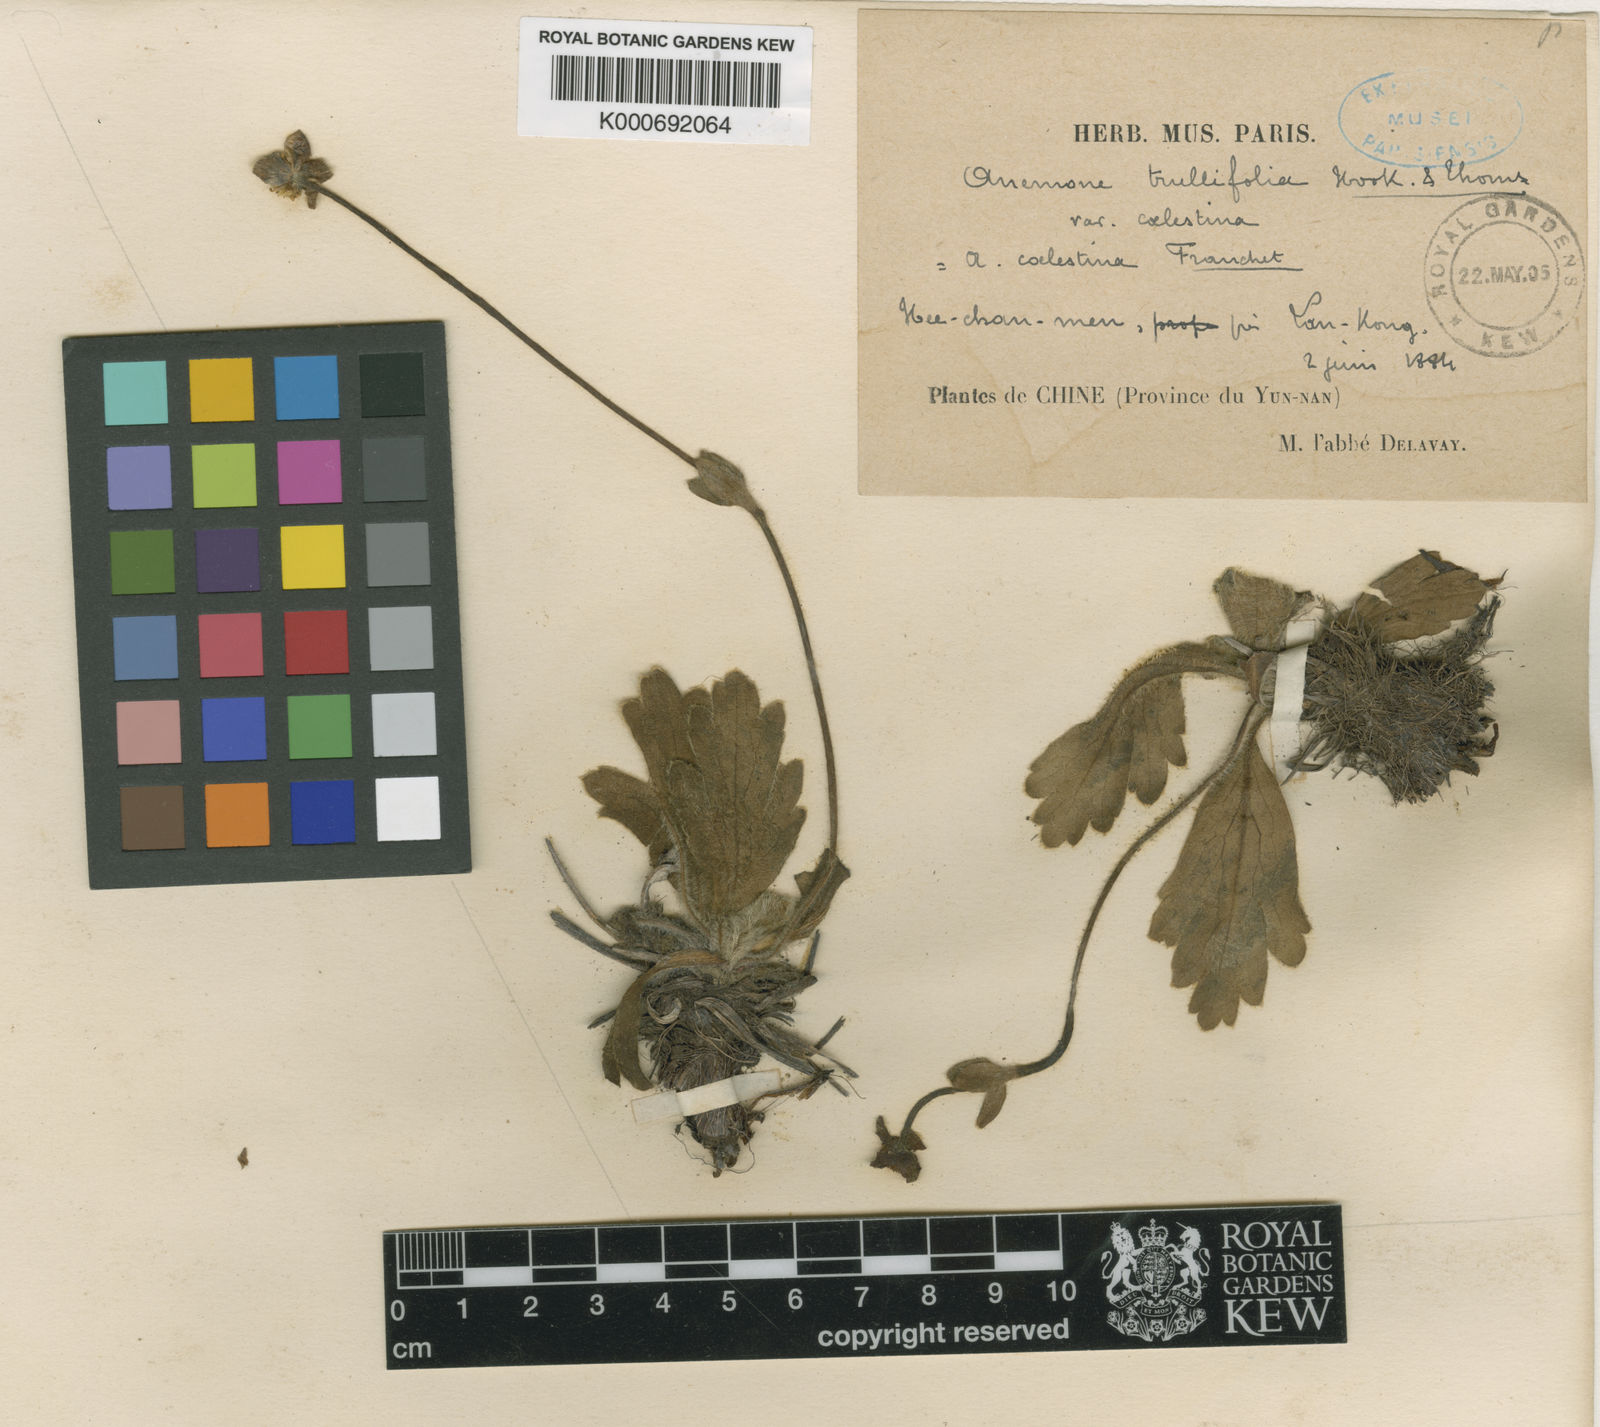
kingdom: Plantae
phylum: Tracheophyta
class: Magnoliopsida
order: Ranunculales
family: Ranunculaceae
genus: Anemonastrum
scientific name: Anemonastrum trullifolium
